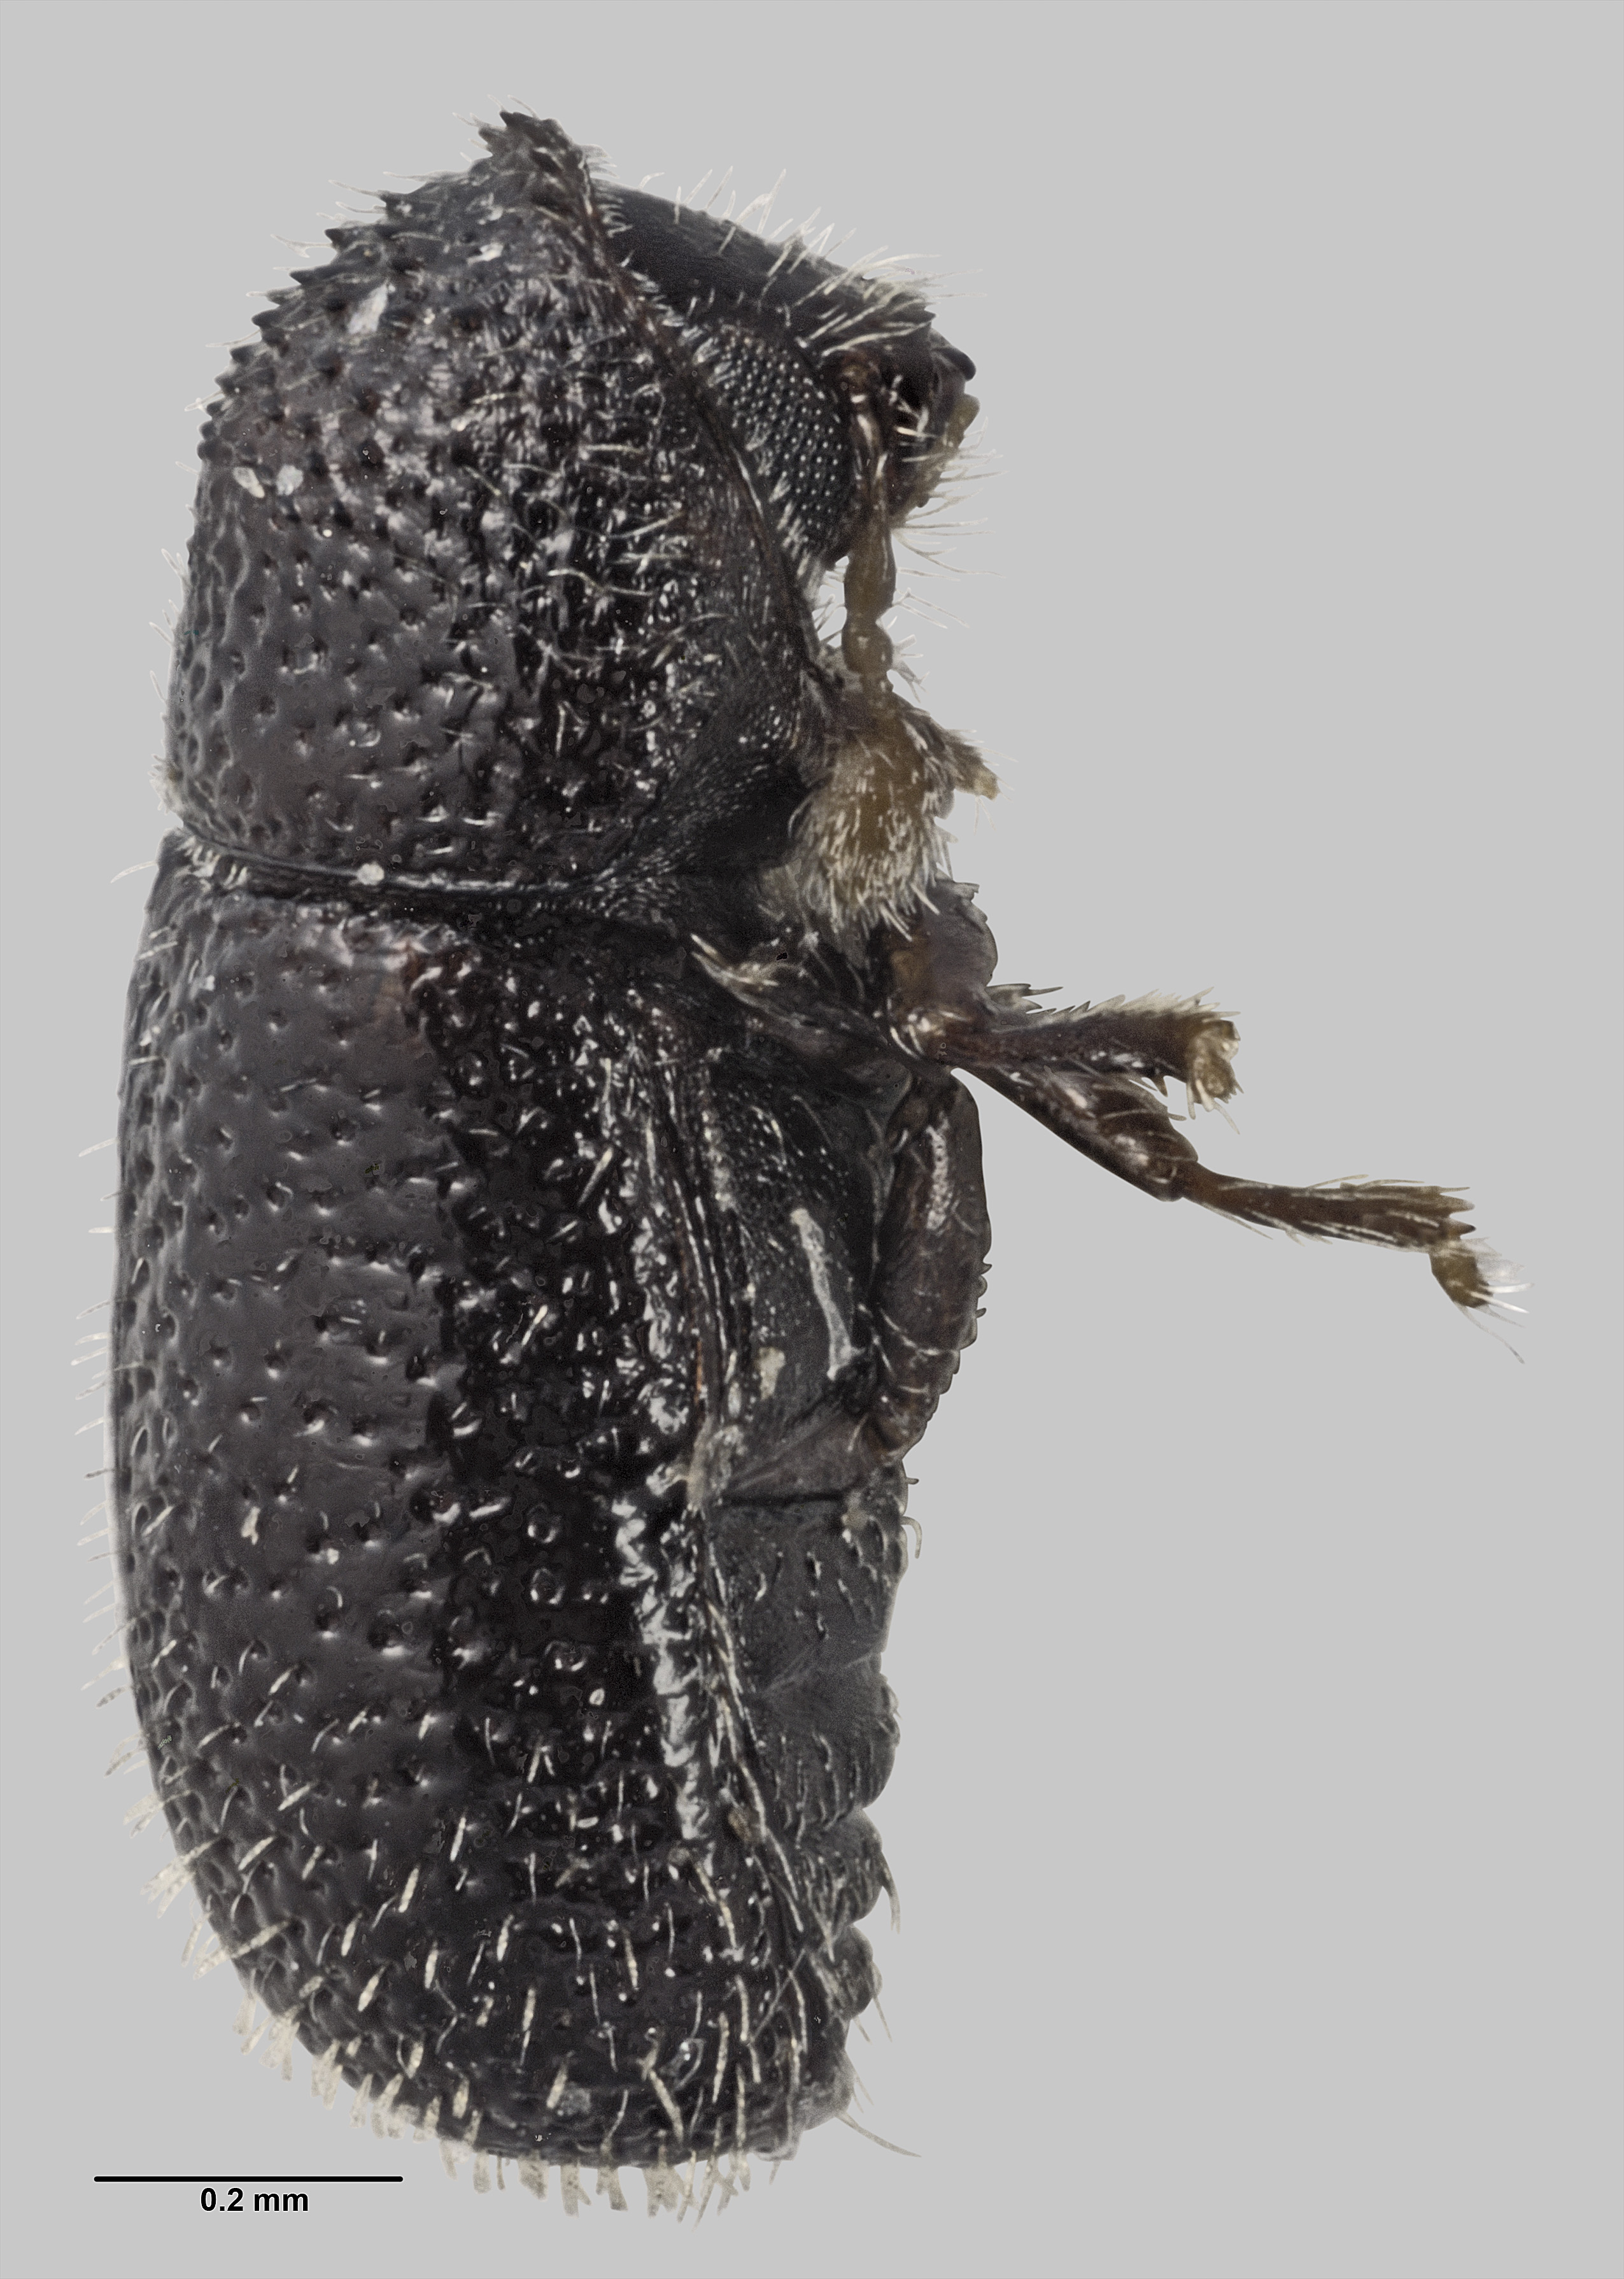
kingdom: Animalia
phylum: Arthropoda
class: Insecta
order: Coleoptera
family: Curculionidae
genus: Ptilopodius
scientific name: Ptilopodius aitutakii
